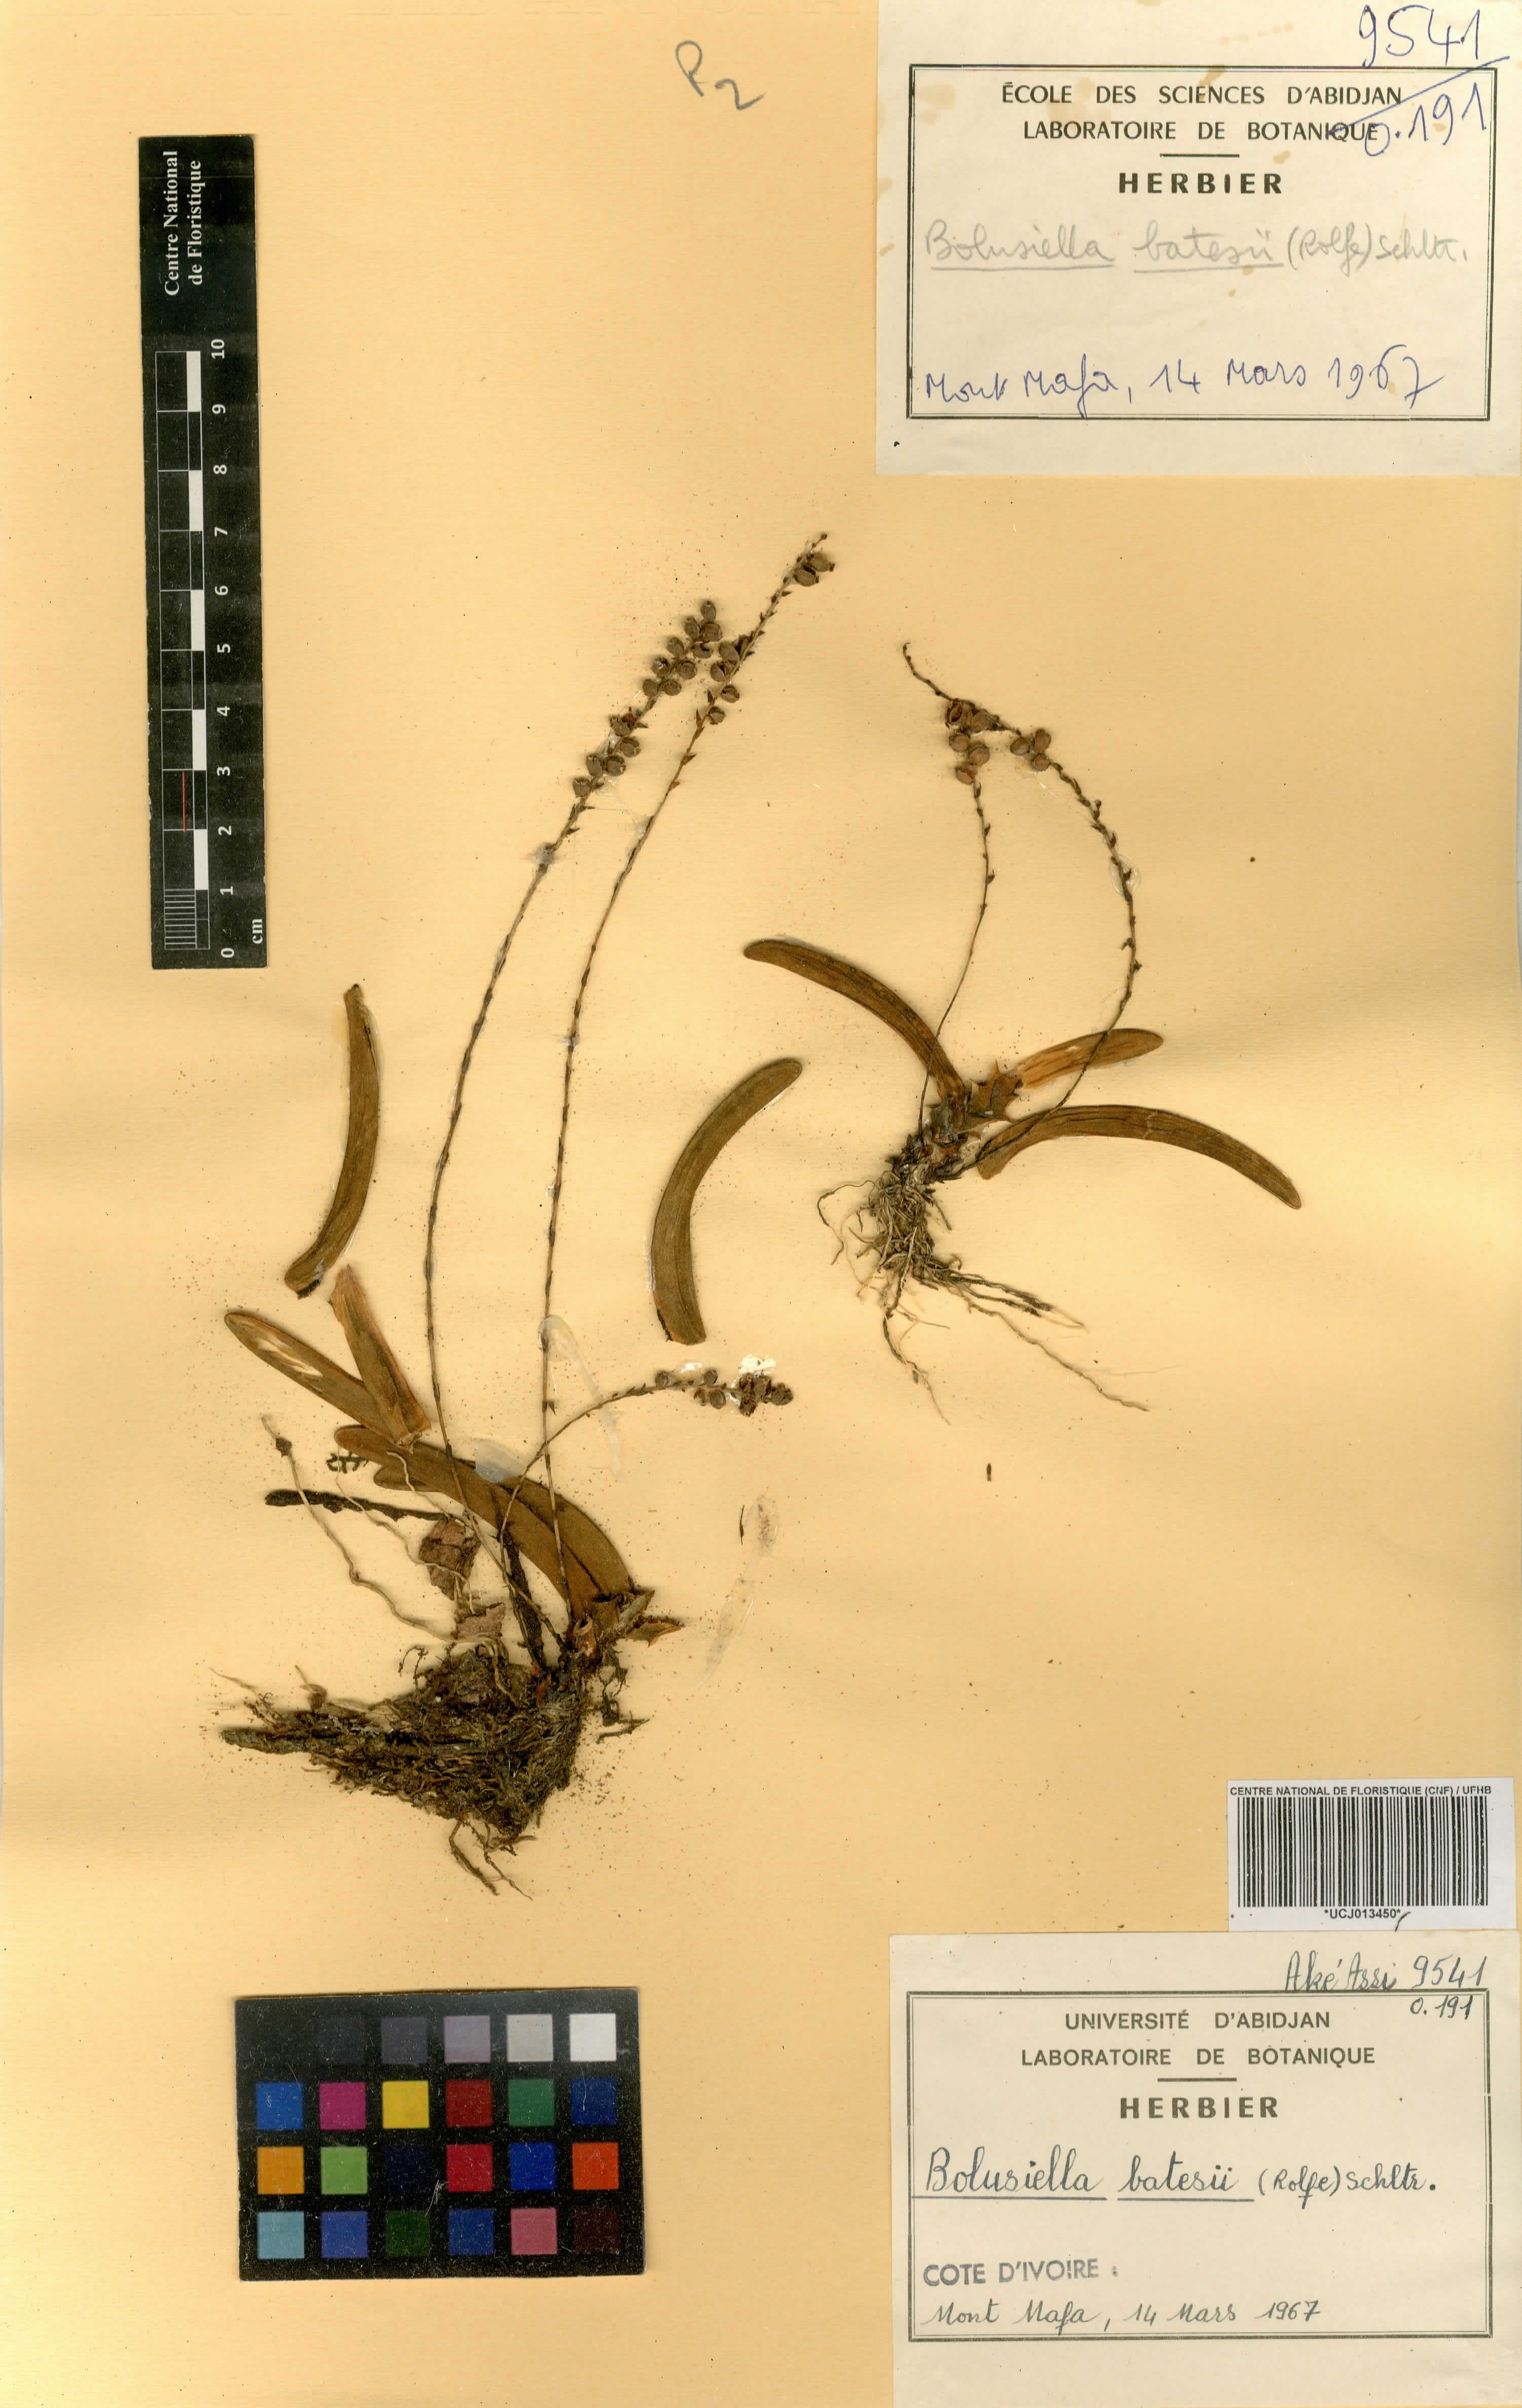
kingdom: Plantae
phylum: Tracheophyta
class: Liliopsida
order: Asparagales
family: Orchidaceae
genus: Bolusiella
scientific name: Bolusiella zenkeri
